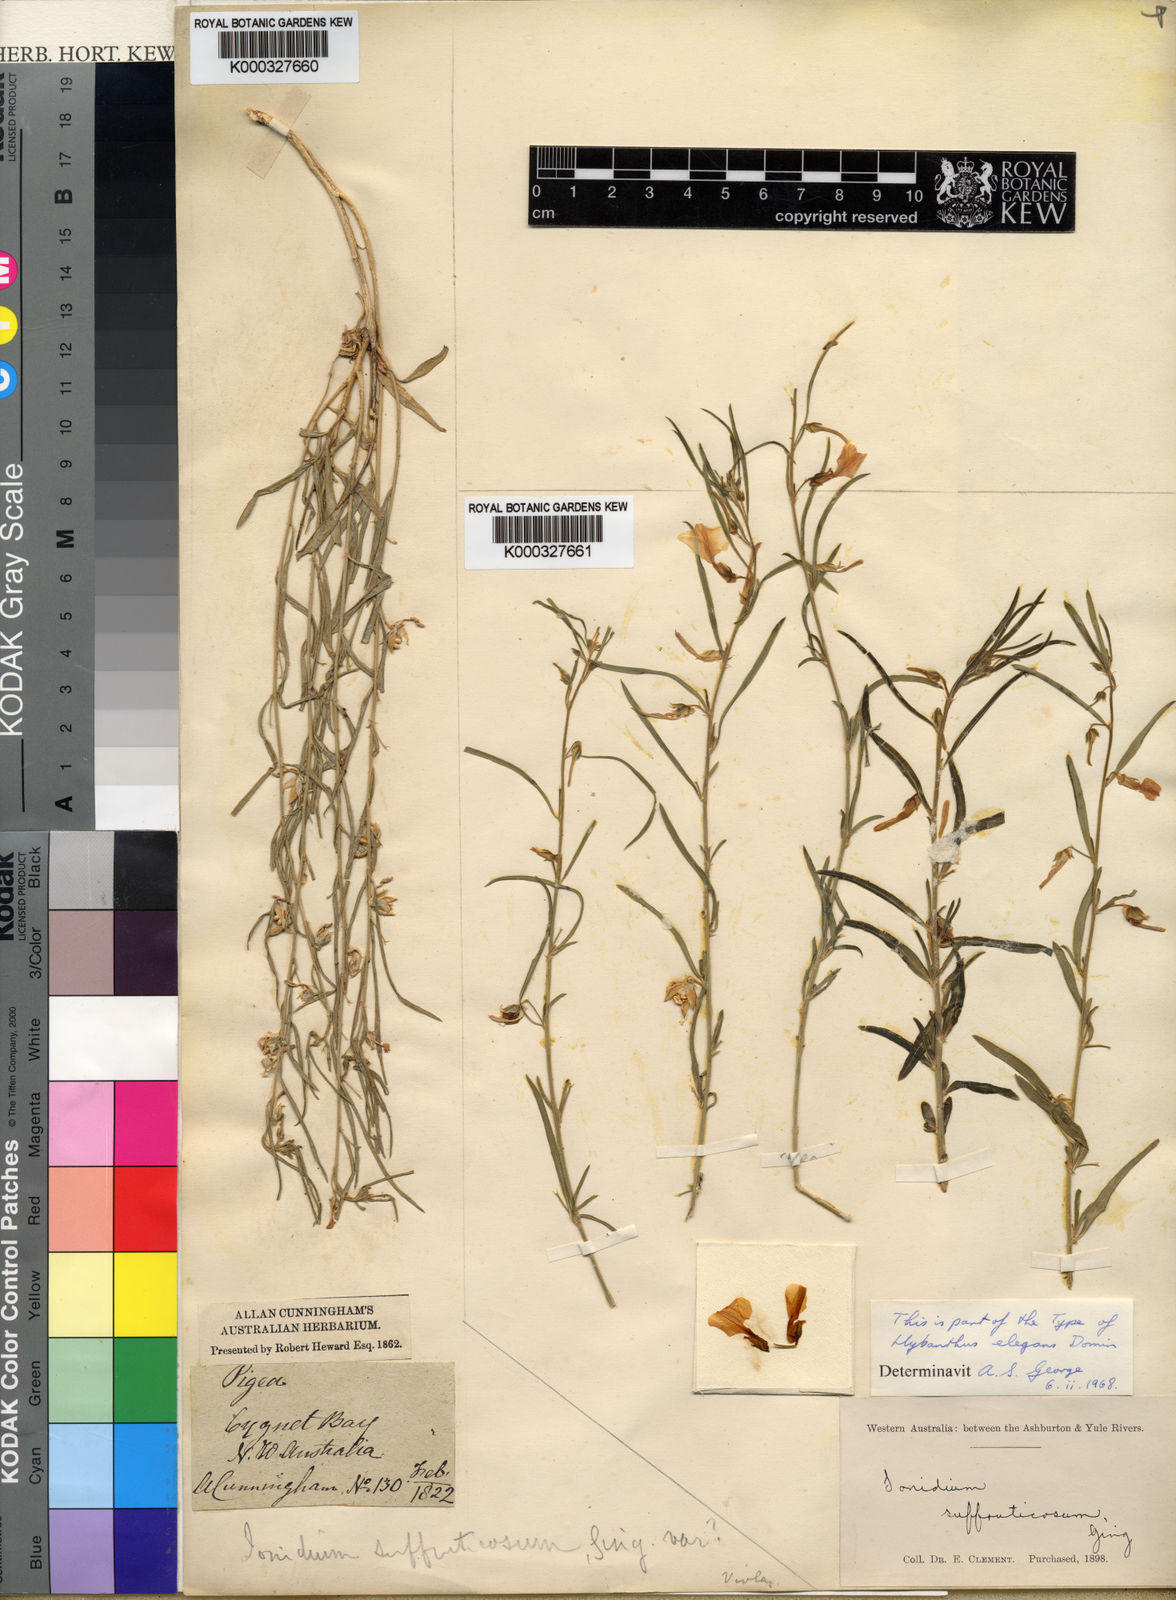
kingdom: Plantae
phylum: Tracheophyta
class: Magnoliopsida
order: Malpighiales
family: Violaceae
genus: Pigea
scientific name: Pigea aurantiaca
